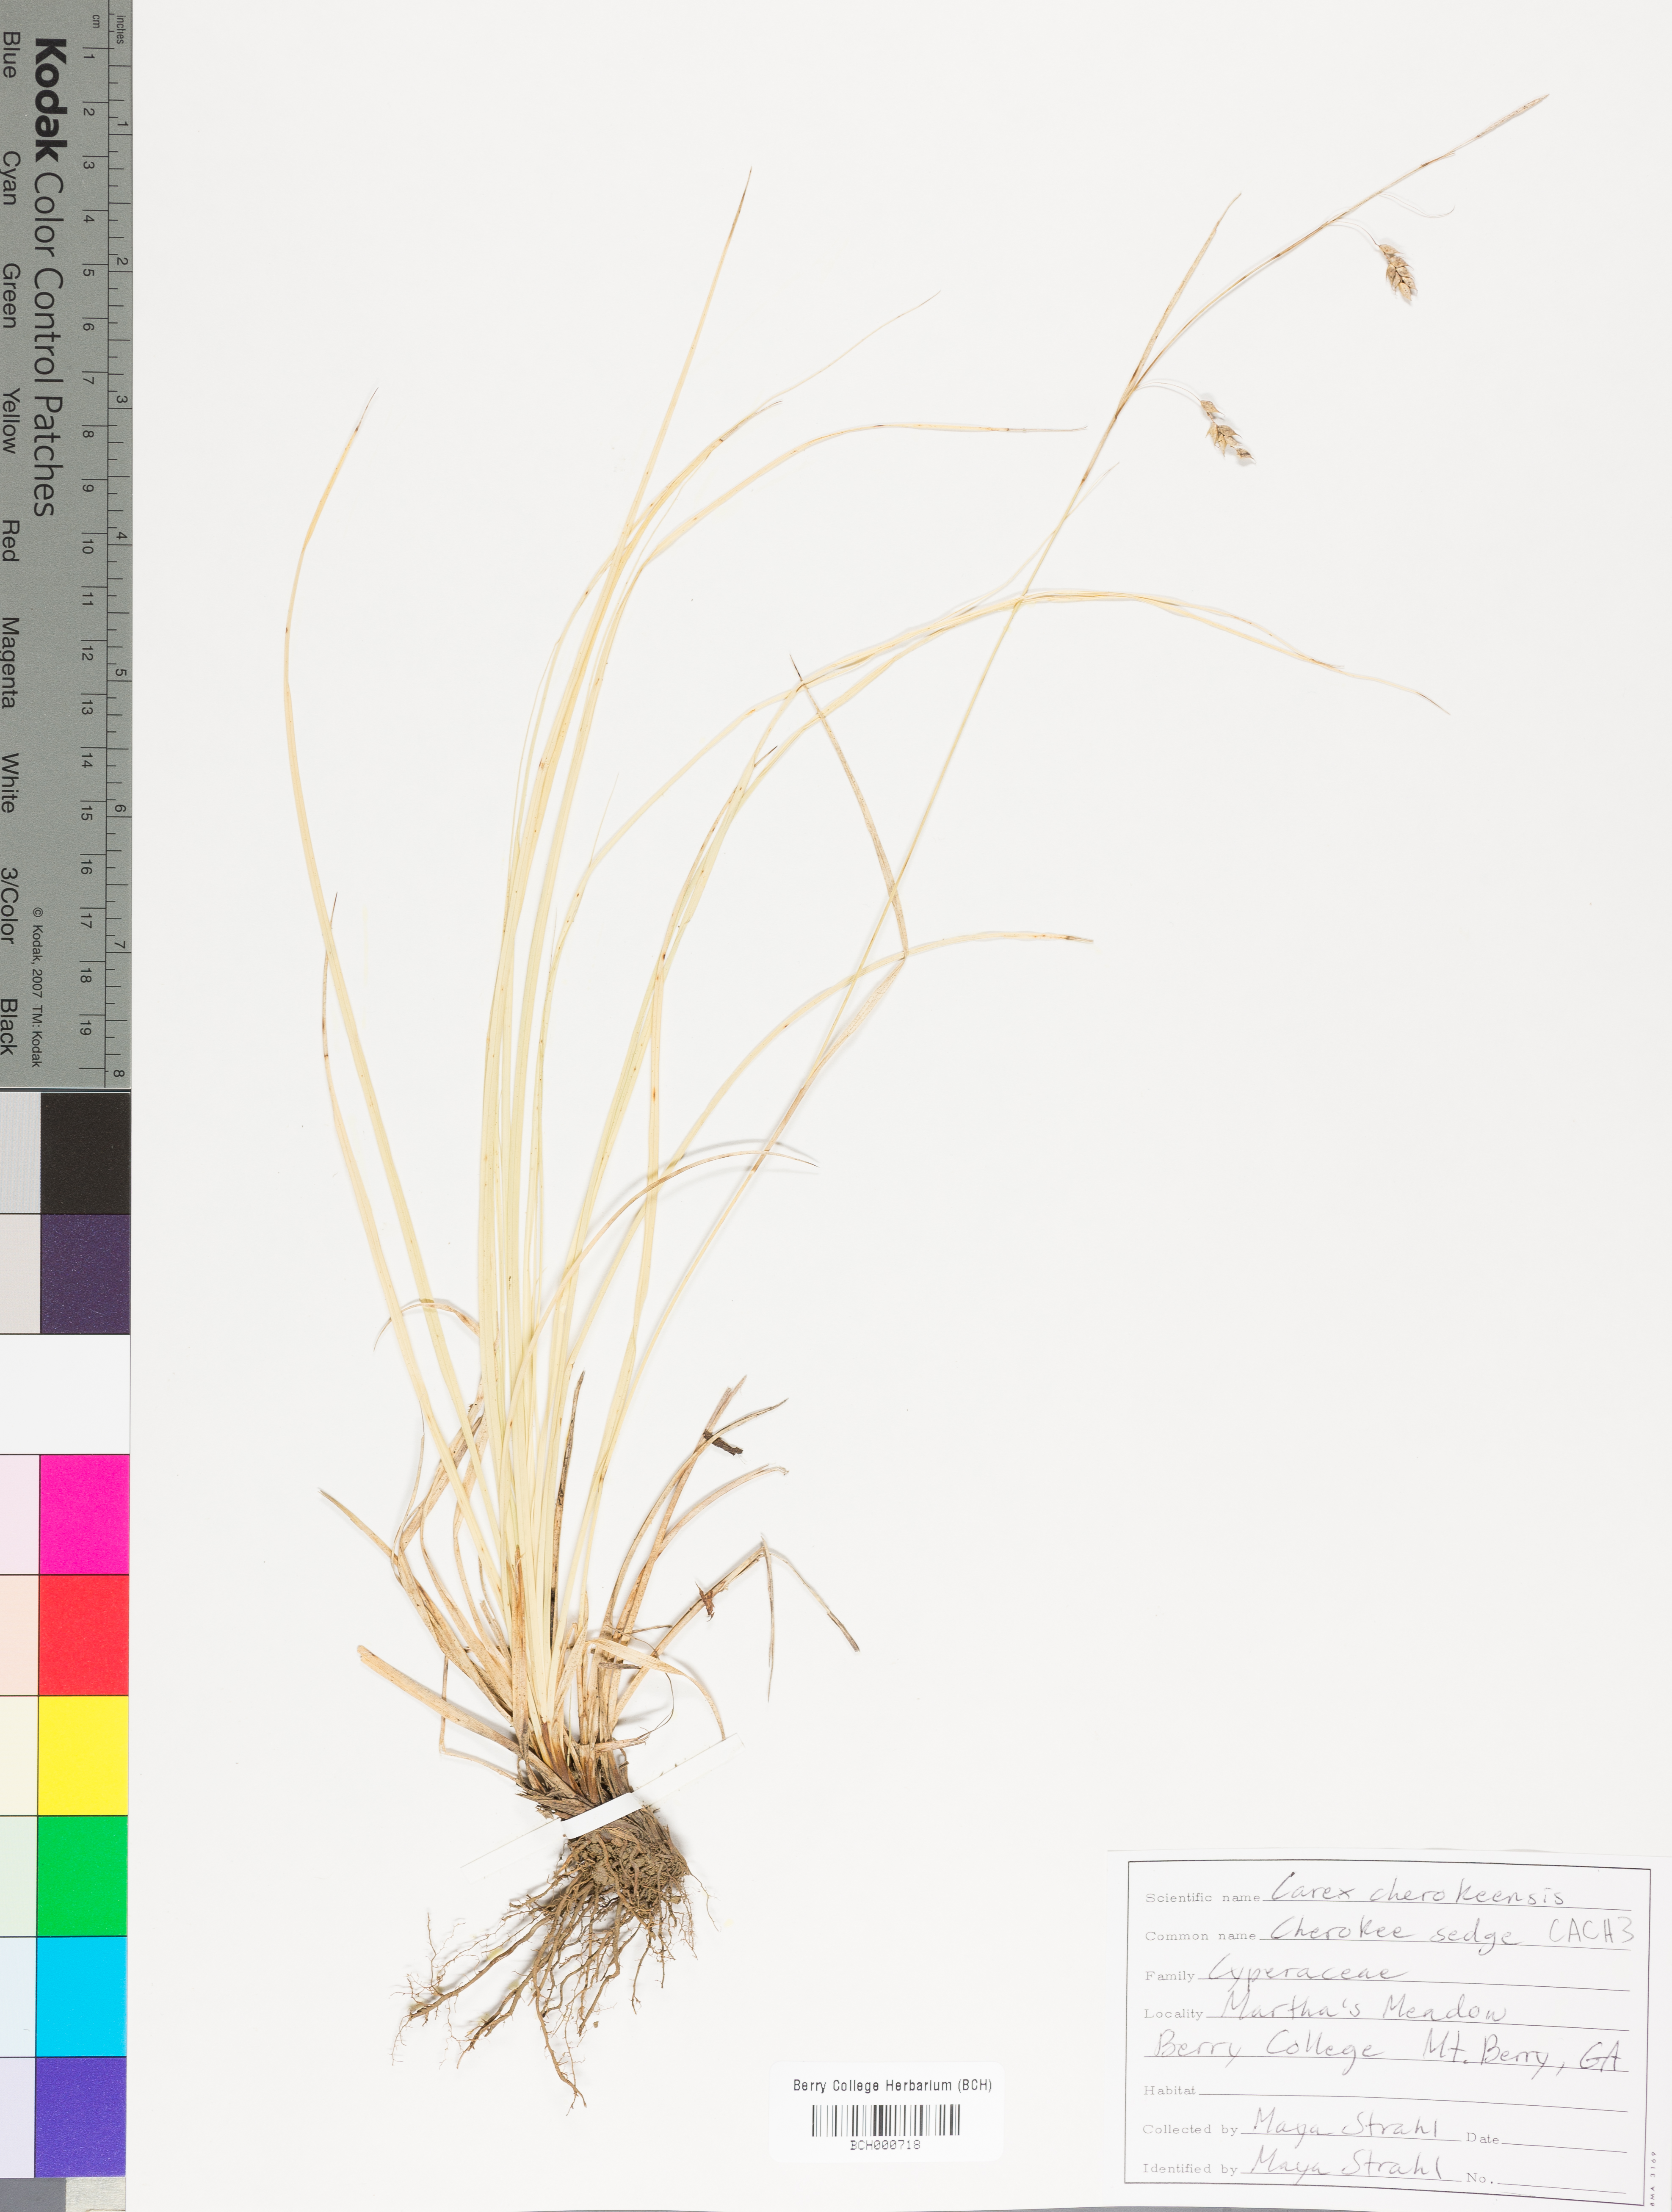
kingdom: Plantae
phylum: Tracheophyta
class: Liliopsida
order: Poales
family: Cyperaceae
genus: Carex
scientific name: Carex cherokeensis
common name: Cherokee sedge
